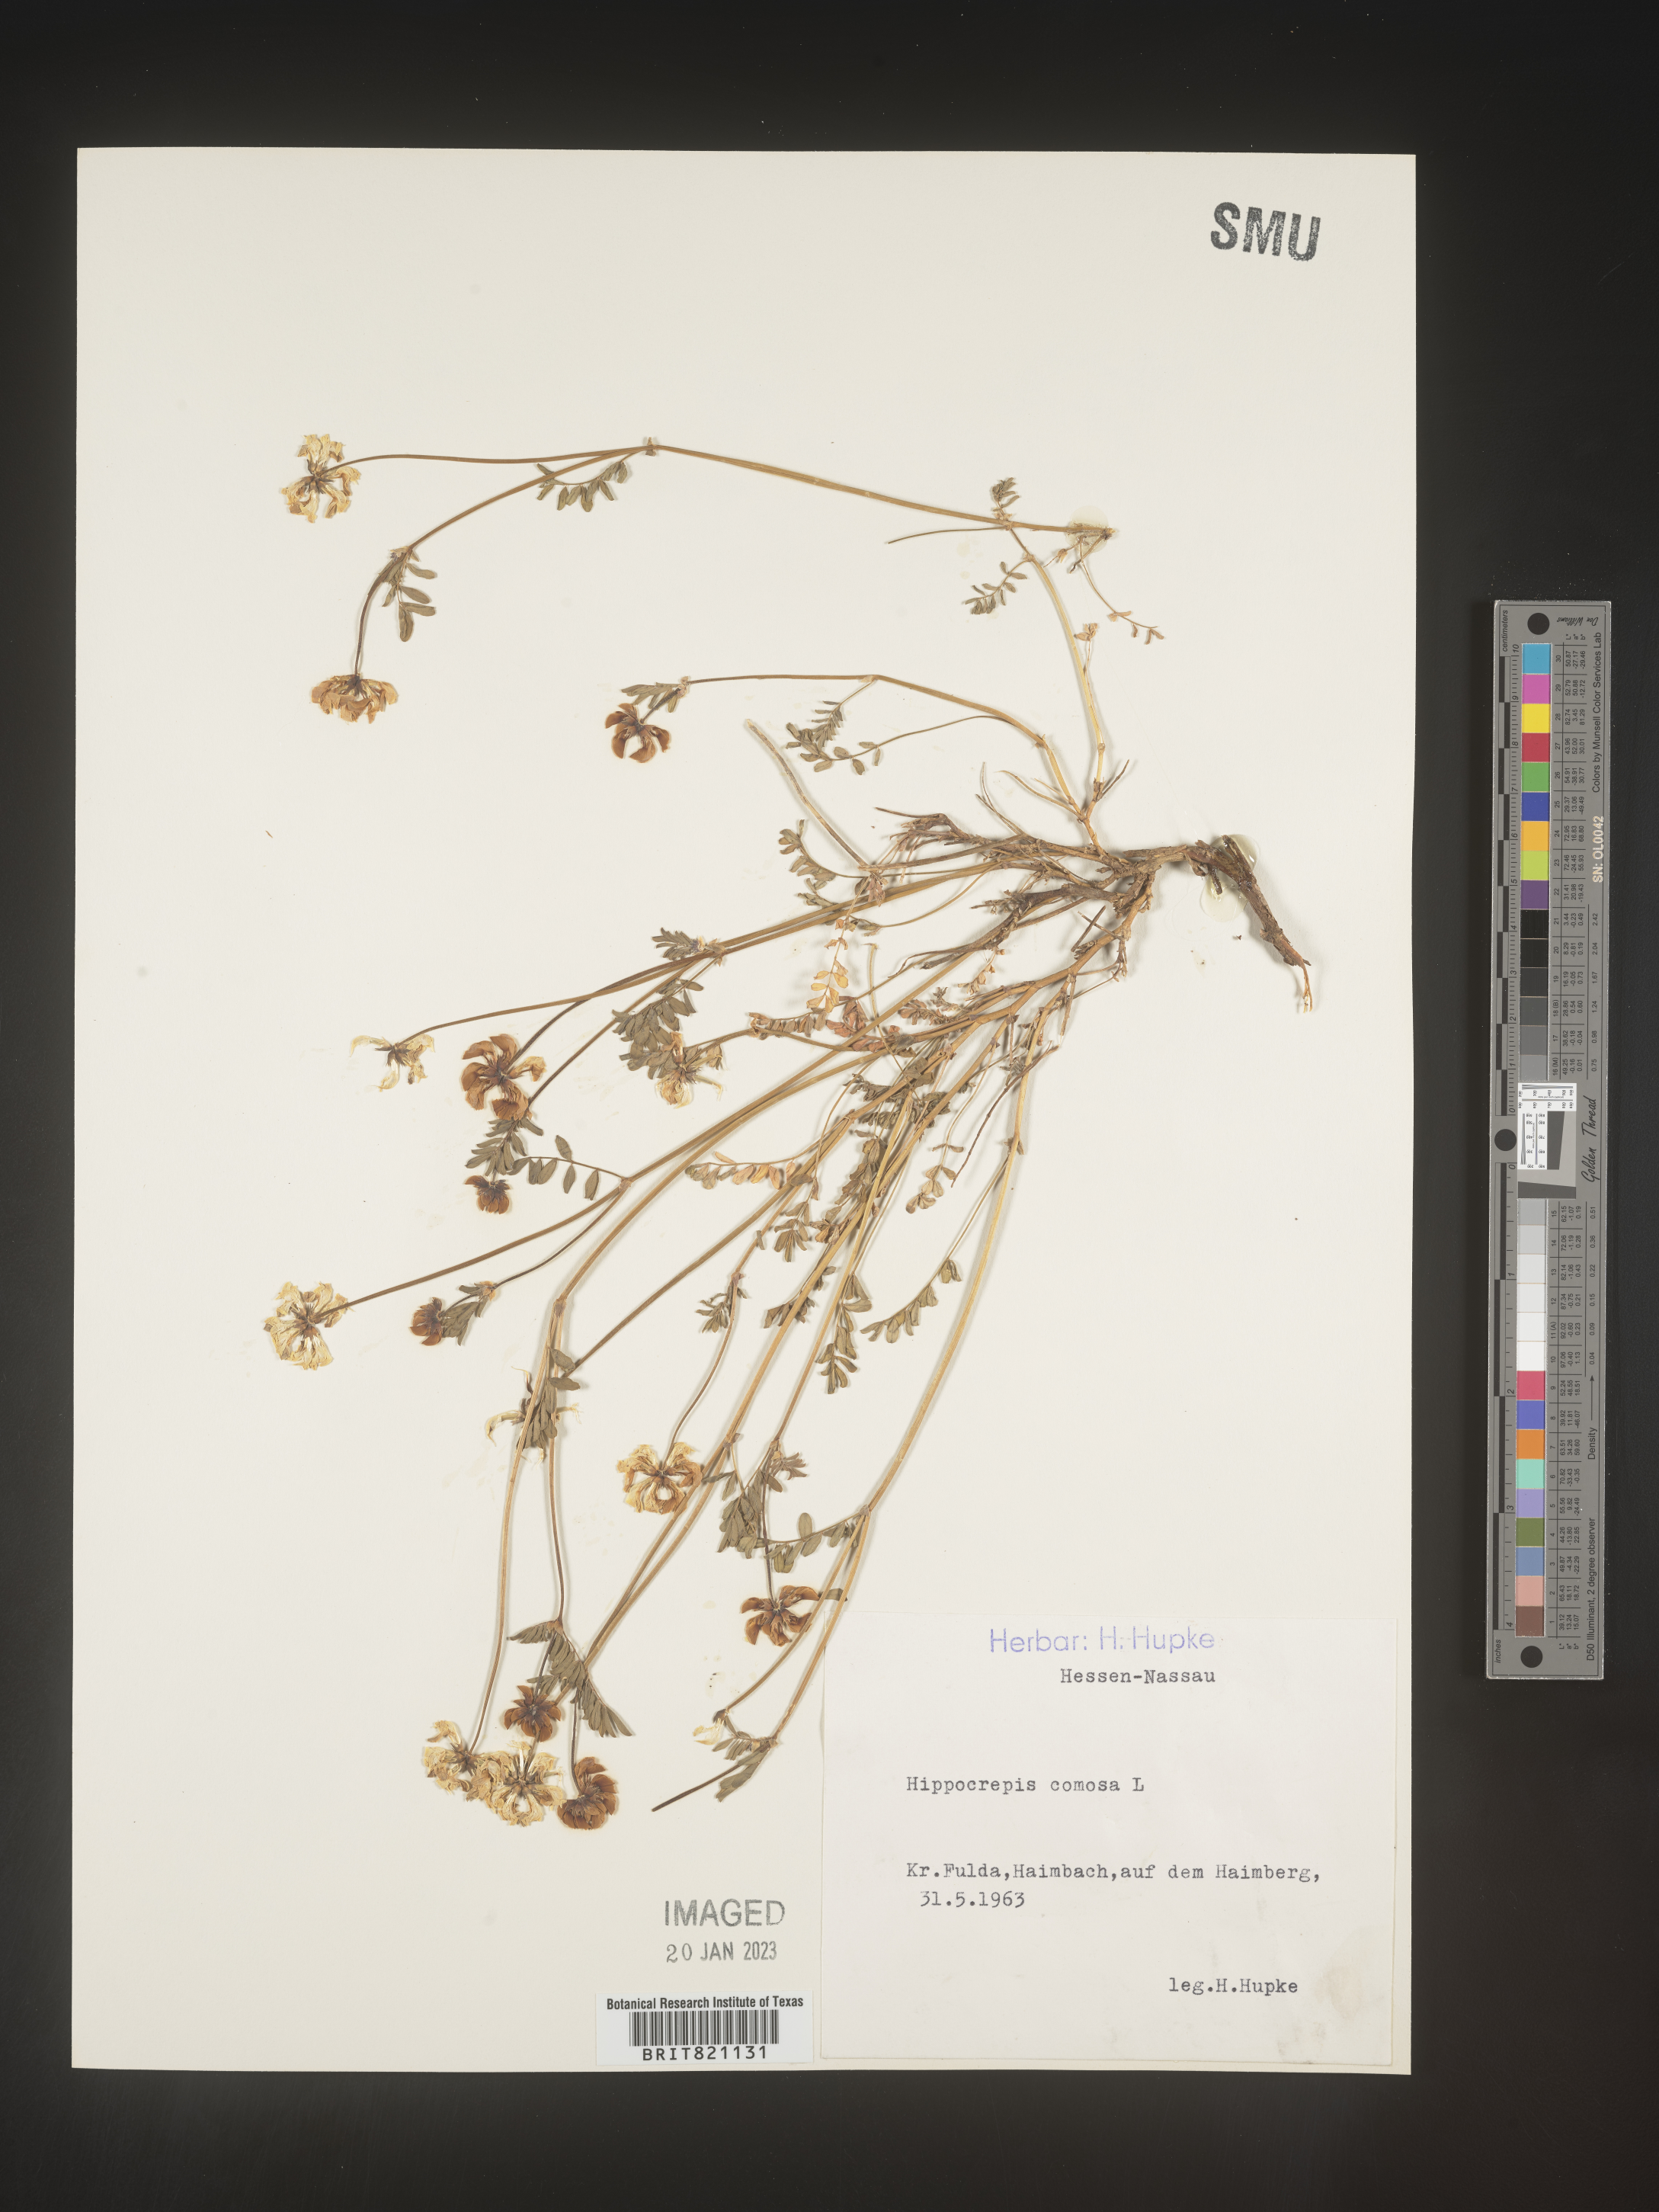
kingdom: Plantae
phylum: Tracheophyta
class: Magnoliopsida
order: Fabales
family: Fabaceae
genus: Hippocrepis
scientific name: Hippocrepis
